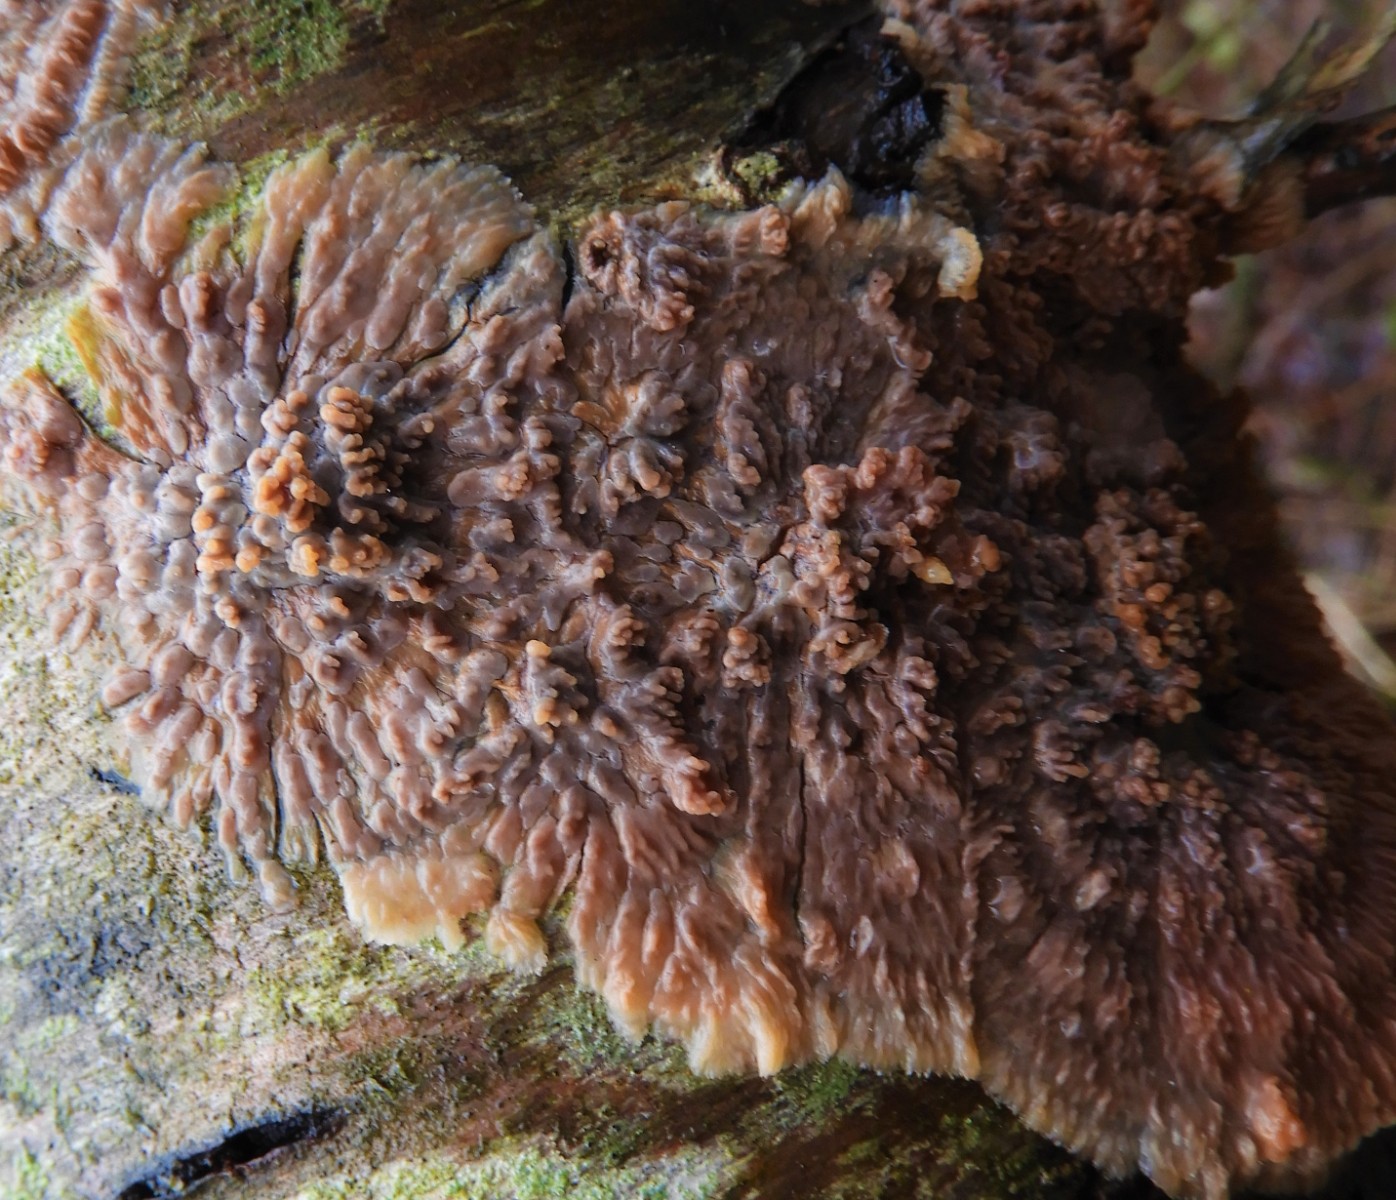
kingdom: Fungi
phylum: Basidiomycota
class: Agaricomycetes
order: Polyporales
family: Meruliaceae
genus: Phlebia
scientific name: Phlebia radiata
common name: stråle-åresvamp
